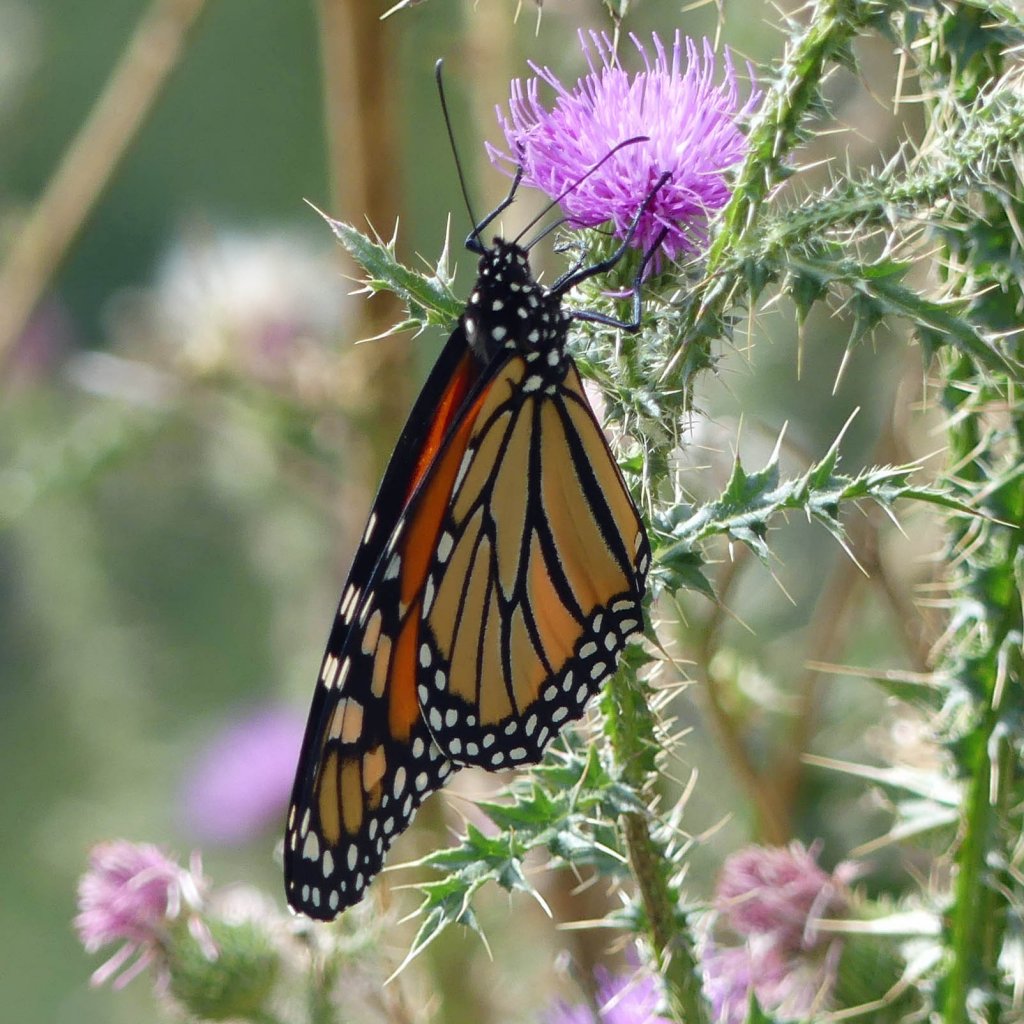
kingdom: Animalia
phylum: Arthropoda
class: Insecta
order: Lepidoptera
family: Nymphalidae
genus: Danaus
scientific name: Danaus plexippus
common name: Monarch
